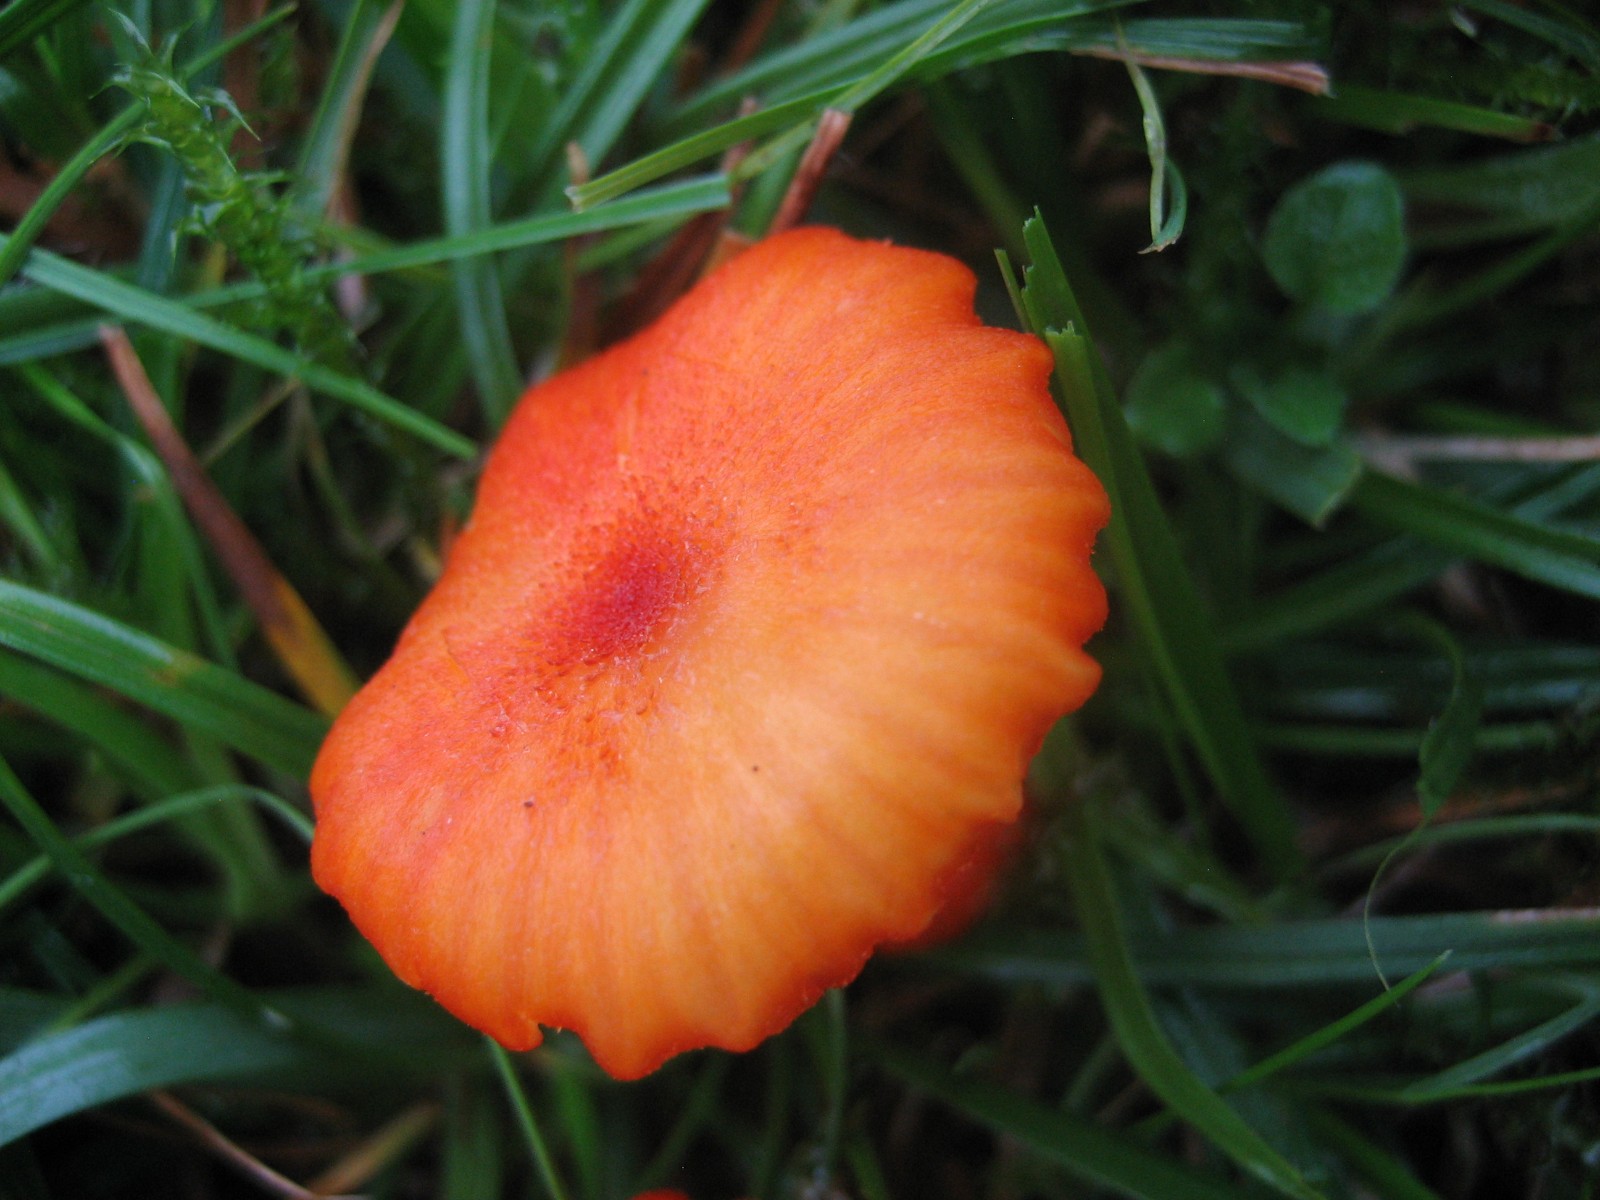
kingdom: Fungi
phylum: Basidiomycota
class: Agaricomycetes
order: Agaricales
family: Hygrophoraceae
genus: Hygrocybe
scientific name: Hygrocybe helobia
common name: hvidløgs-vokshat
